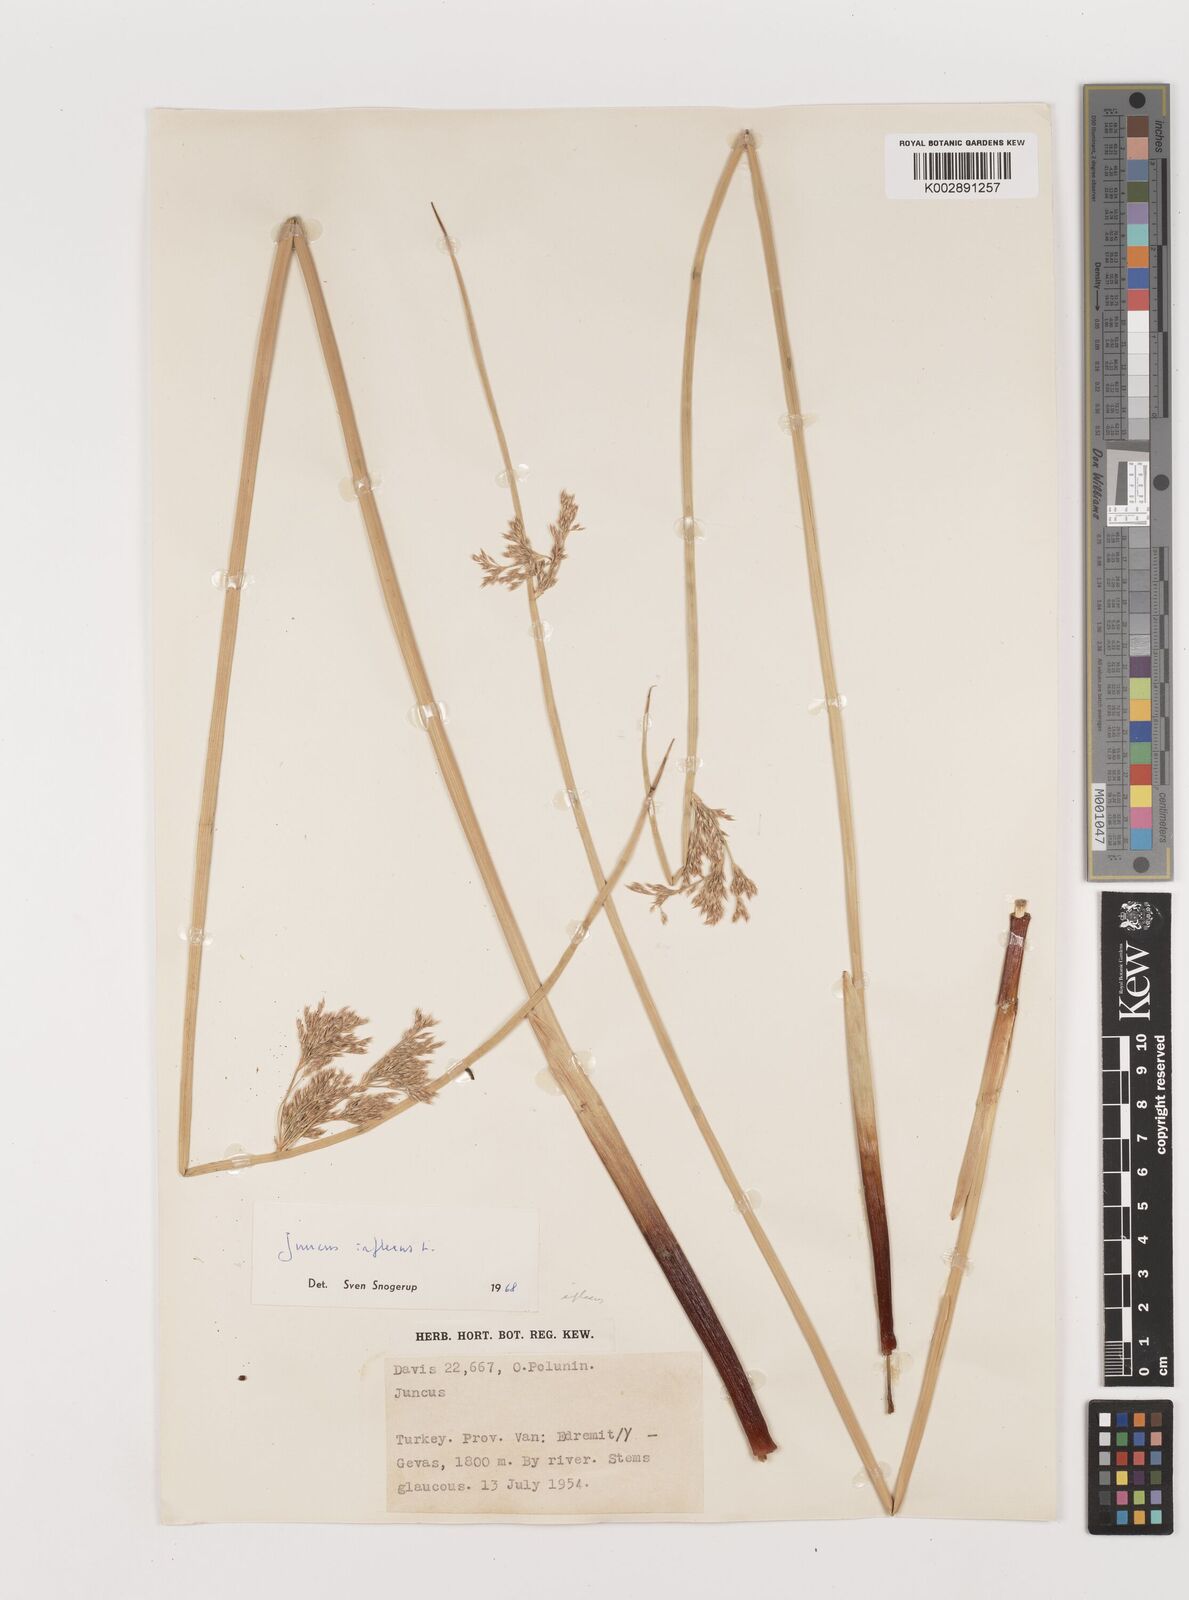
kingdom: Plantae
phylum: Tracheophyta
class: Liliopsida
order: Poales
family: Juncaceae
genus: Juncus
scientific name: Juncus inflexus
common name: Hard rush
